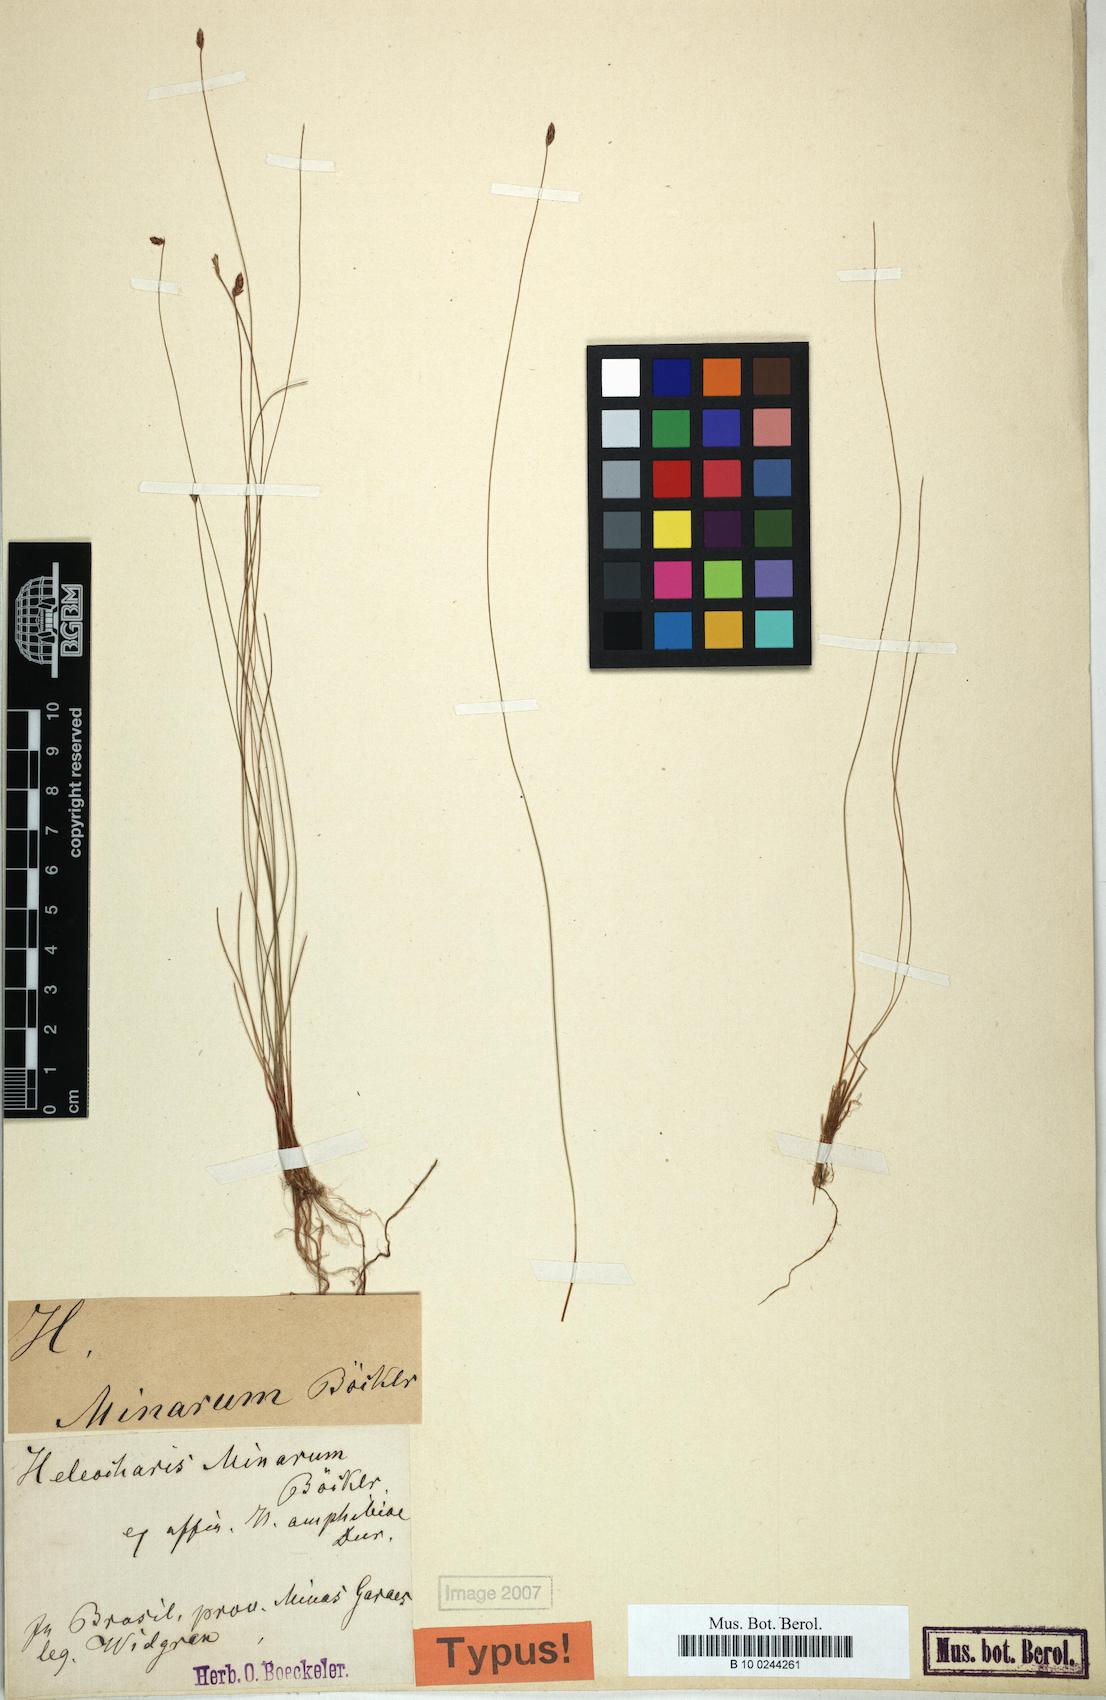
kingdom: Plantae
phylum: Tracheophyta
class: Liliopsida
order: Poales
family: Cyperaceae
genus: Eleocharis
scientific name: Eleocharis minarum
